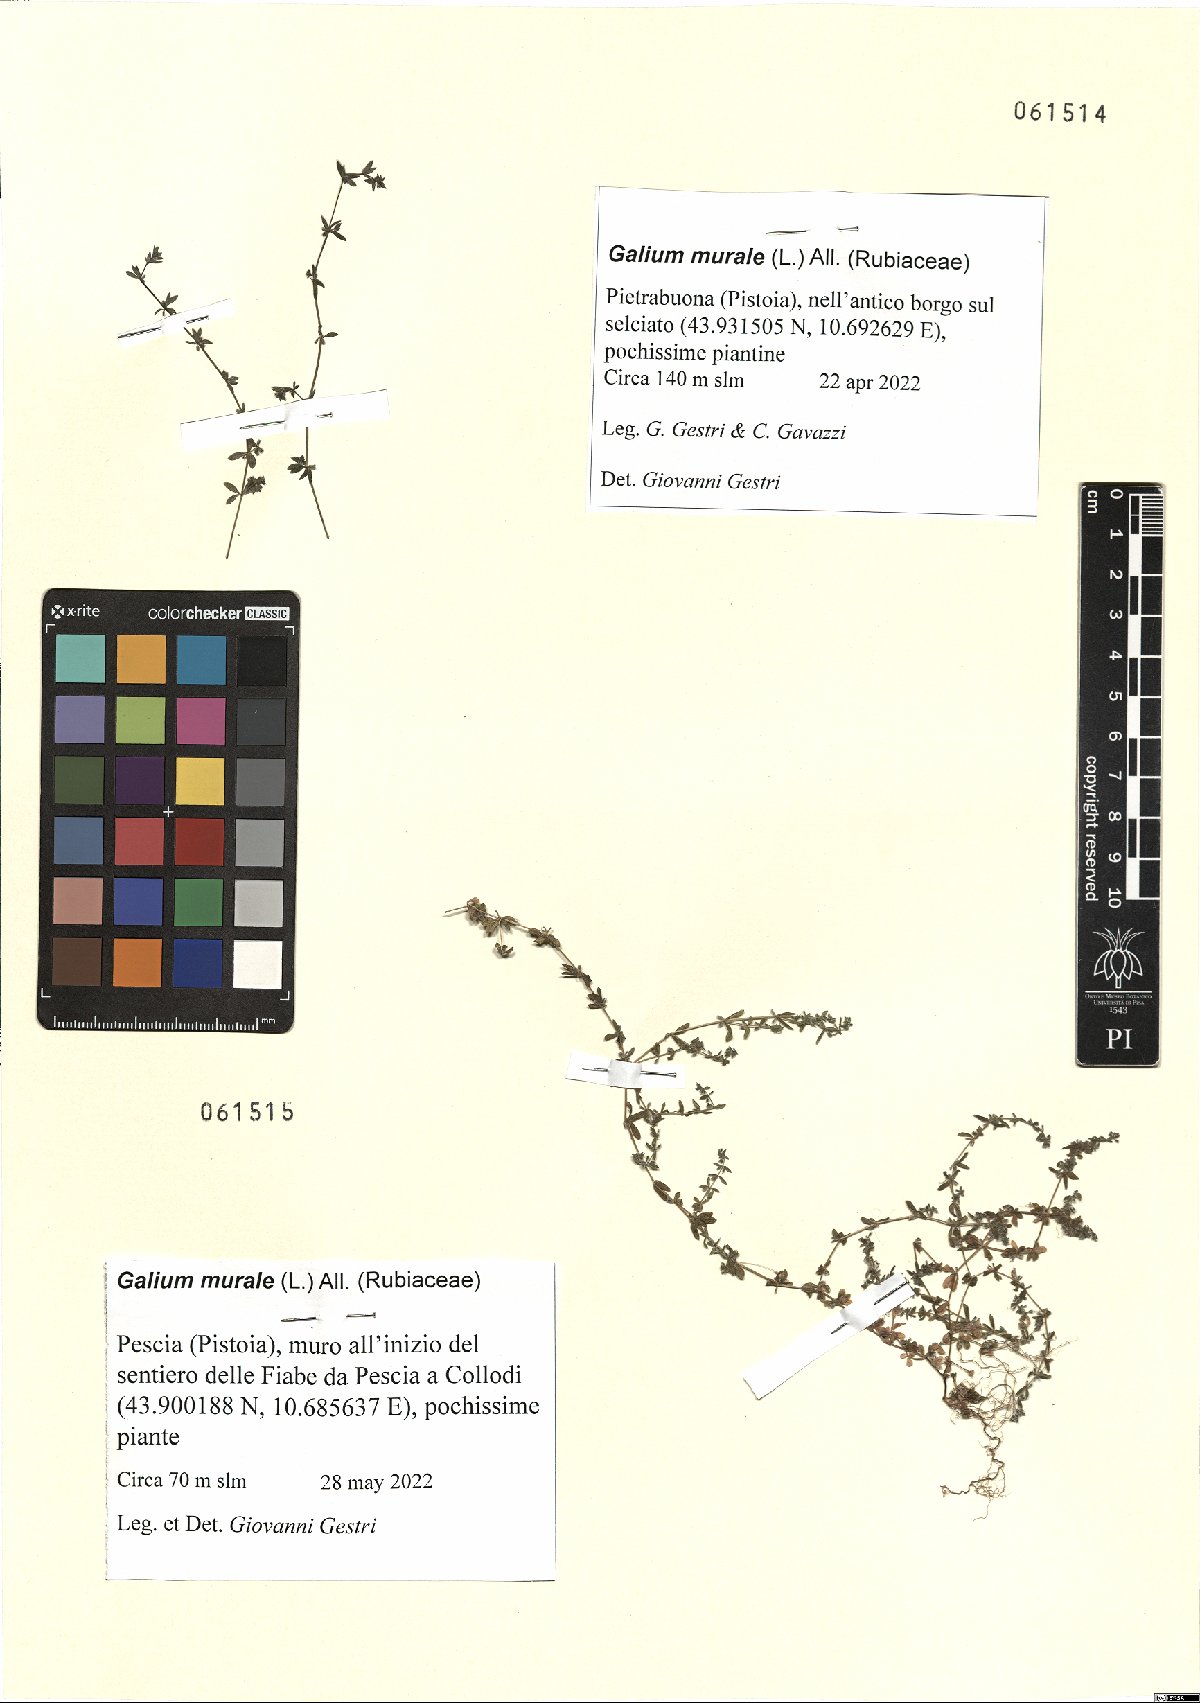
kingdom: Plantae
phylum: Tracheophyta
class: Magnoliopsida
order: Gentianales
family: Rubiaceae
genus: Galium
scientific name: Galium murale
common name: Yellow wall bedstraw
